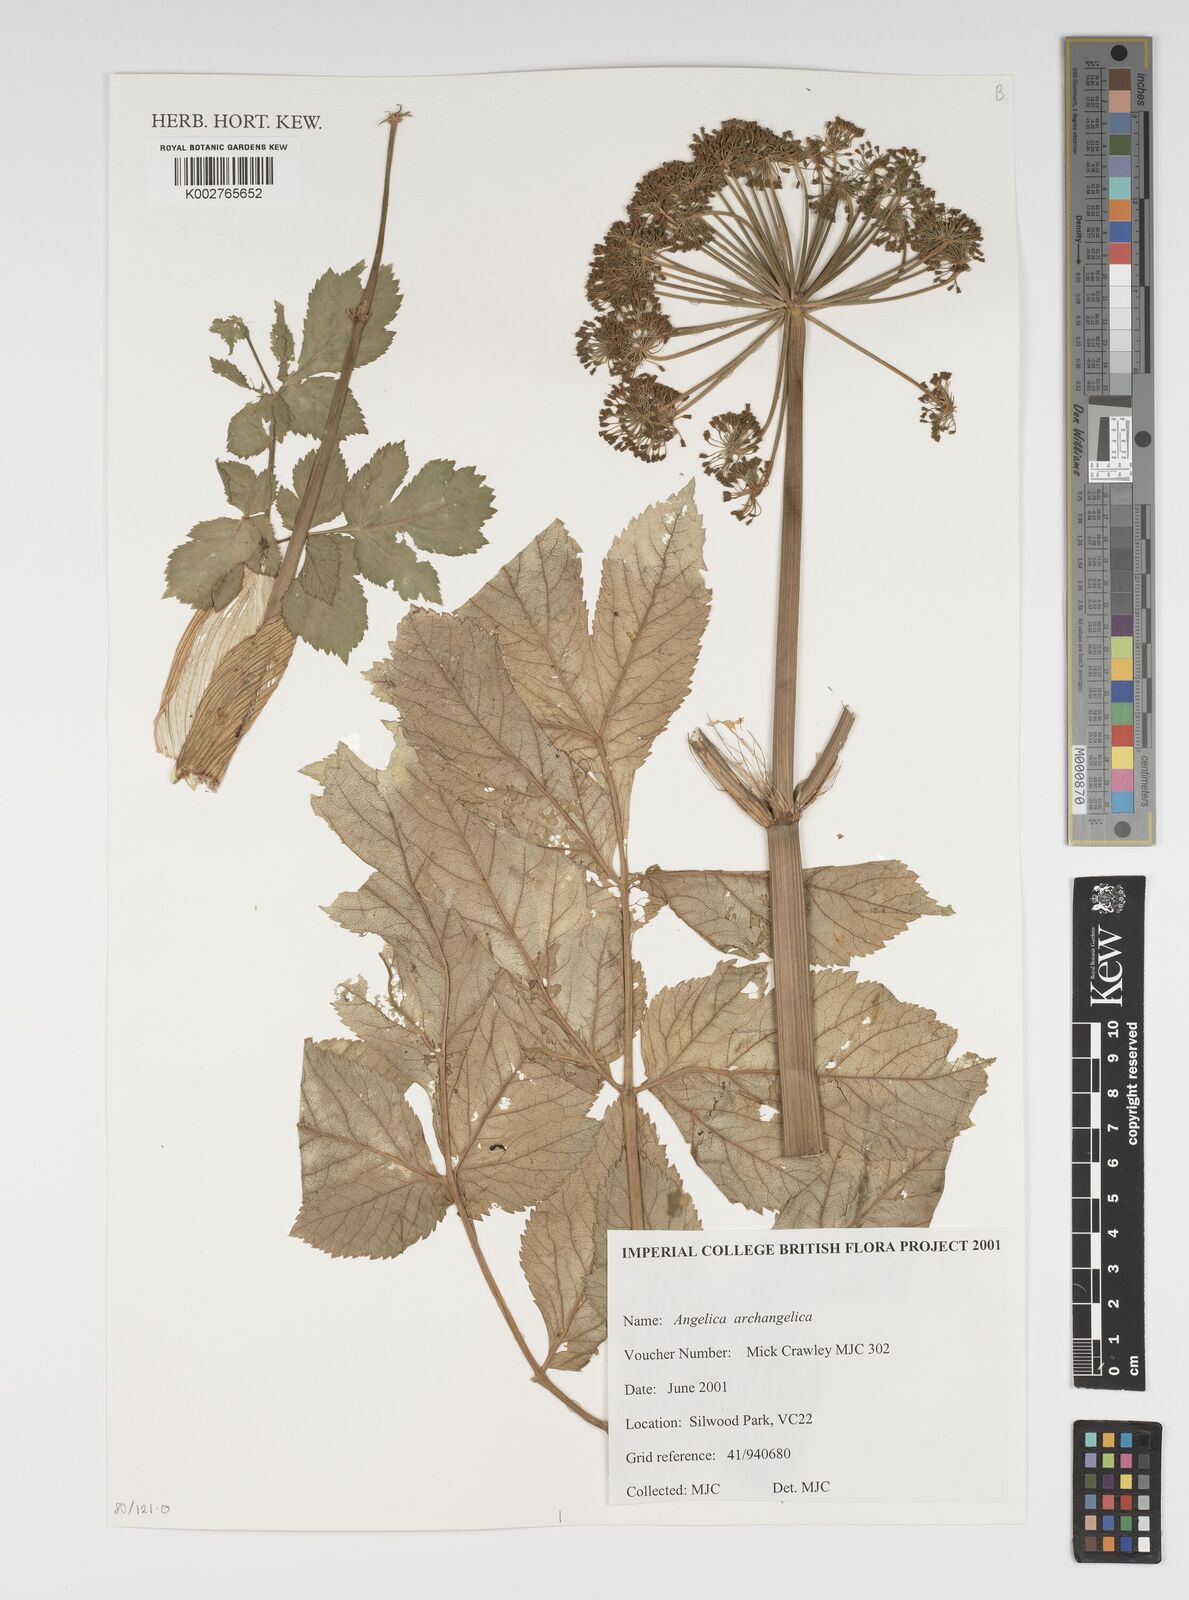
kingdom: Plantae
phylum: Tracheophyta
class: Magnoliopsida
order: Apiales
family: Apiaceae
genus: Angelica
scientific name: Angelica archangelica
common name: Garden angelica
